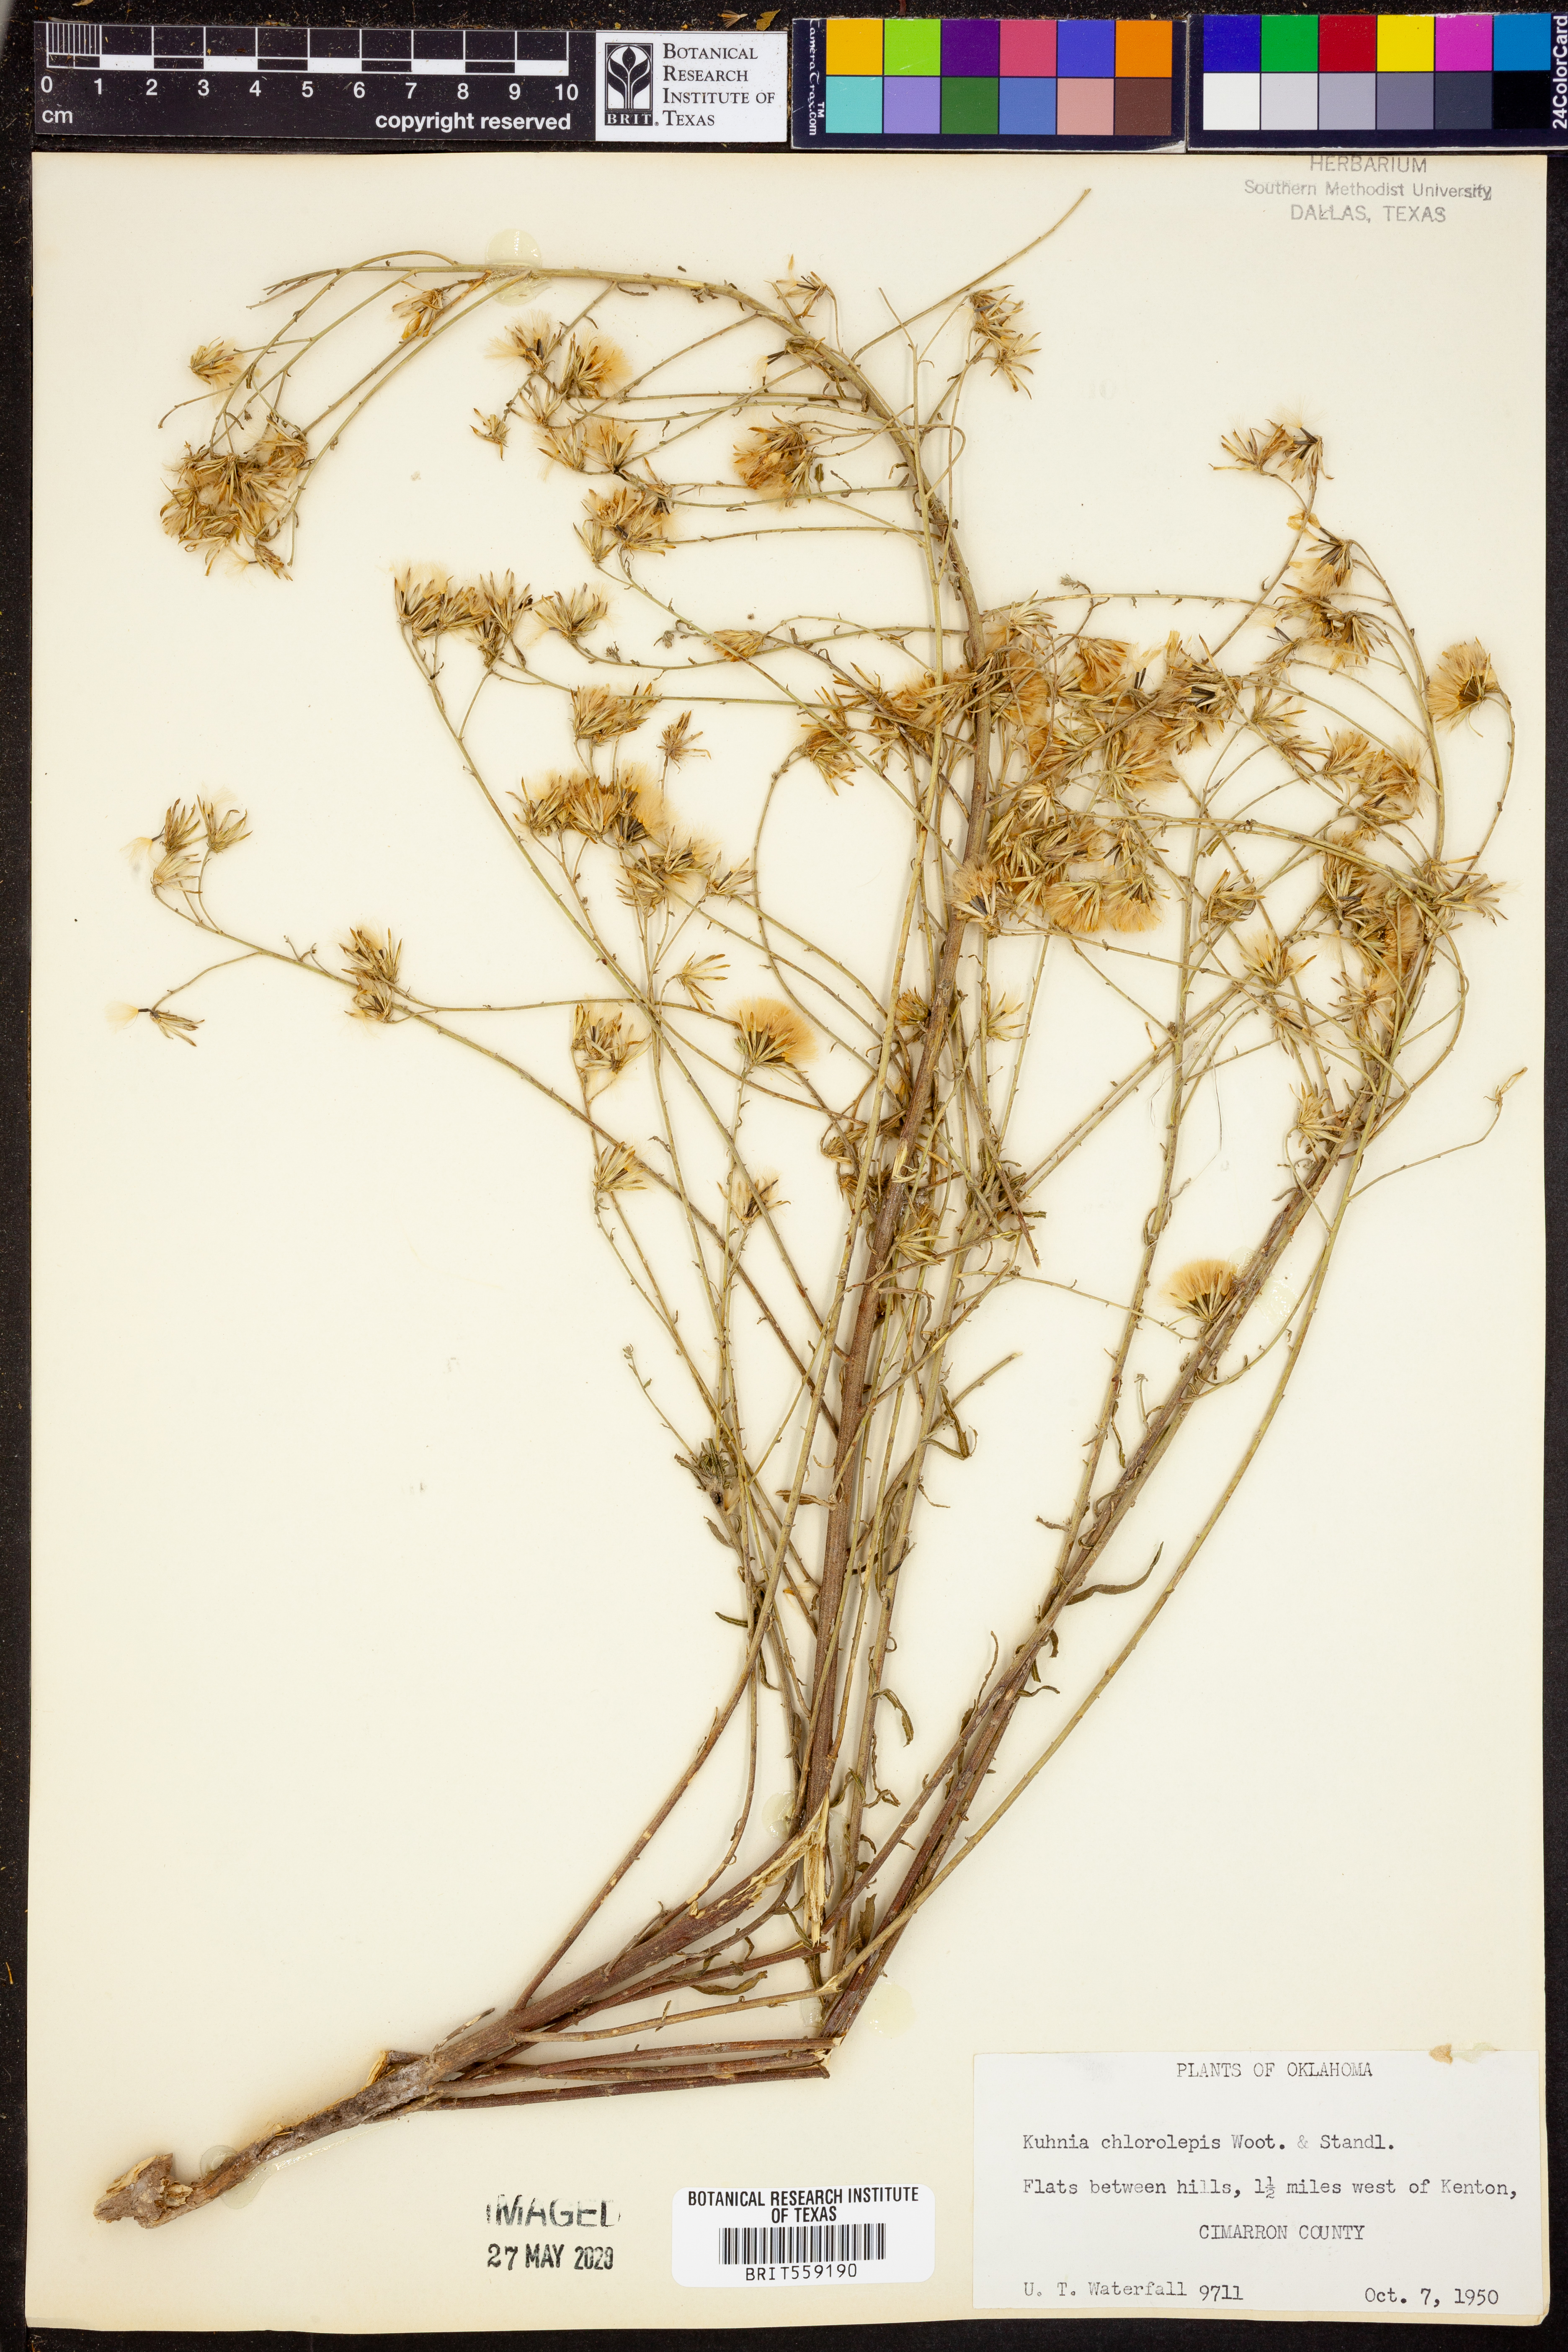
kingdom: Plantae
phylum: Tracheophyta
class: Magnoliopsida
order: Asterales
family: Asteraceae
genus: Brickellia
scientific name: Brickellia leptophylla
